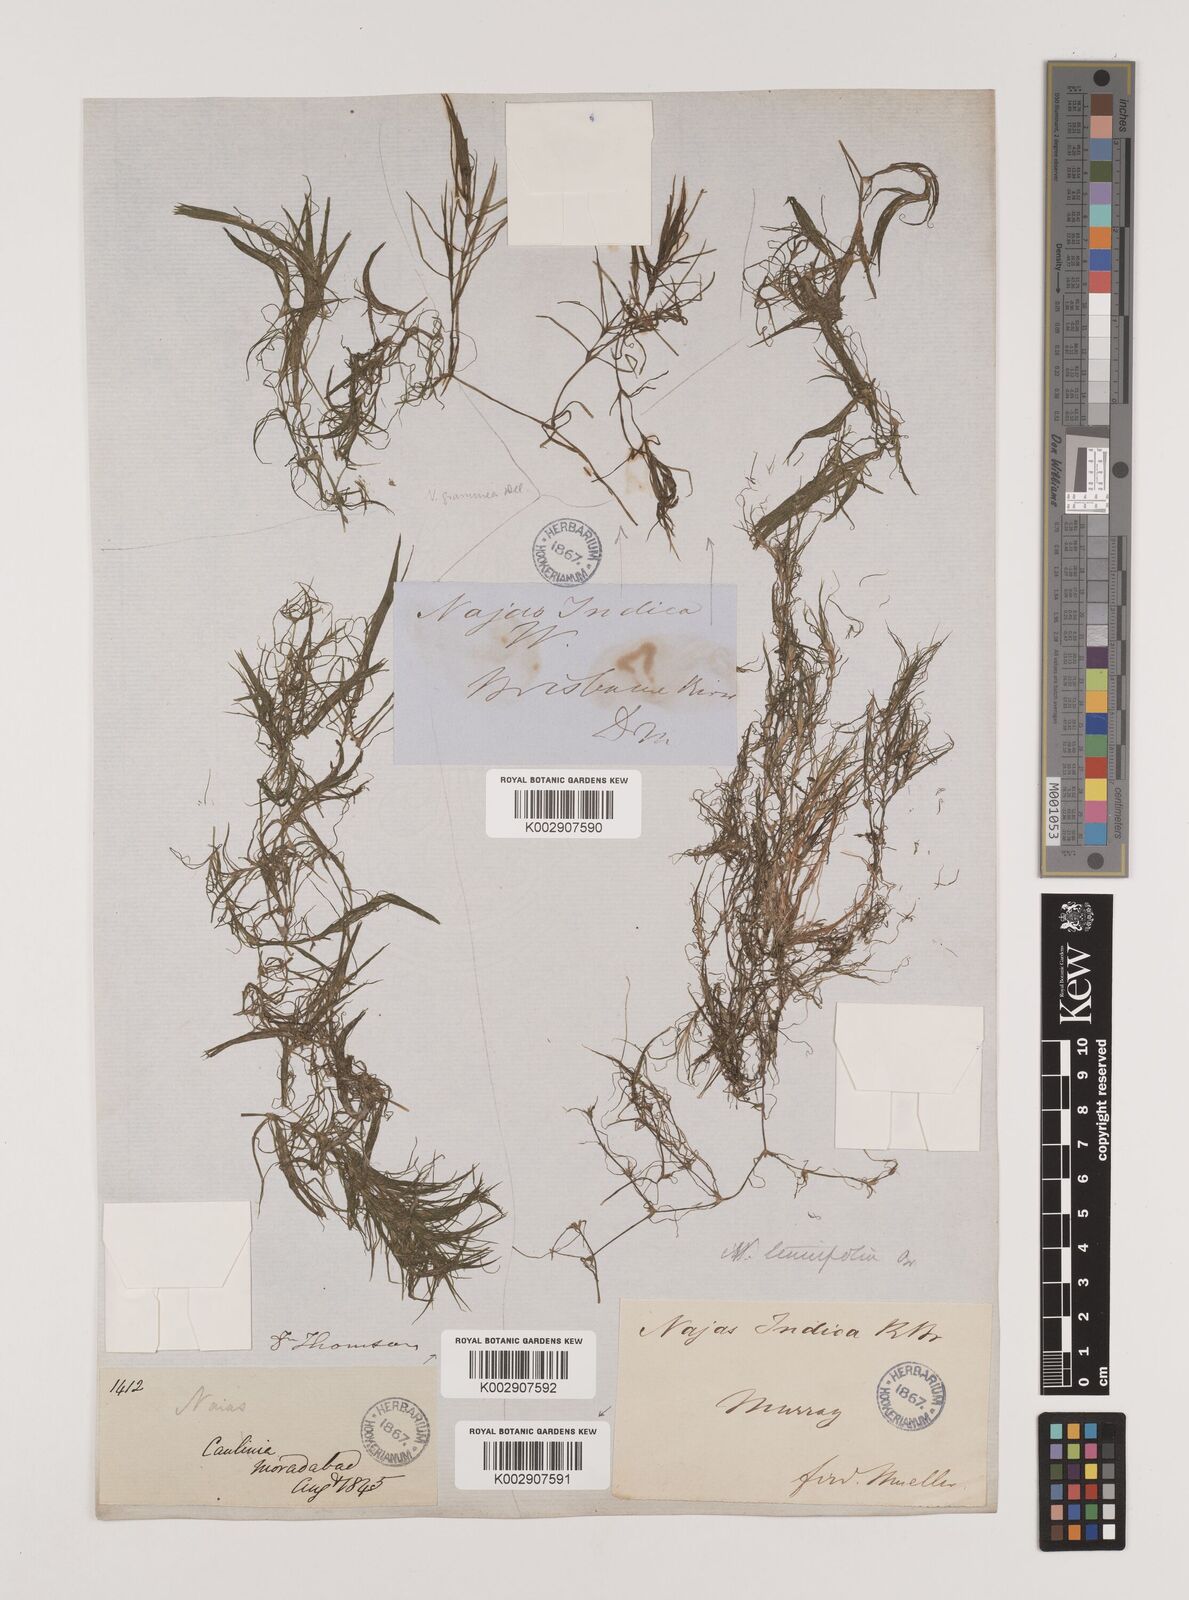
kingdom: Plantae
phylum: Tracheophyta
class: Liliopsida
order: Alismatales
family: Hydrocharitaceae
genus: Najas
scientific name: Najas tenuifolia
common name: Thin-leaved naiad
